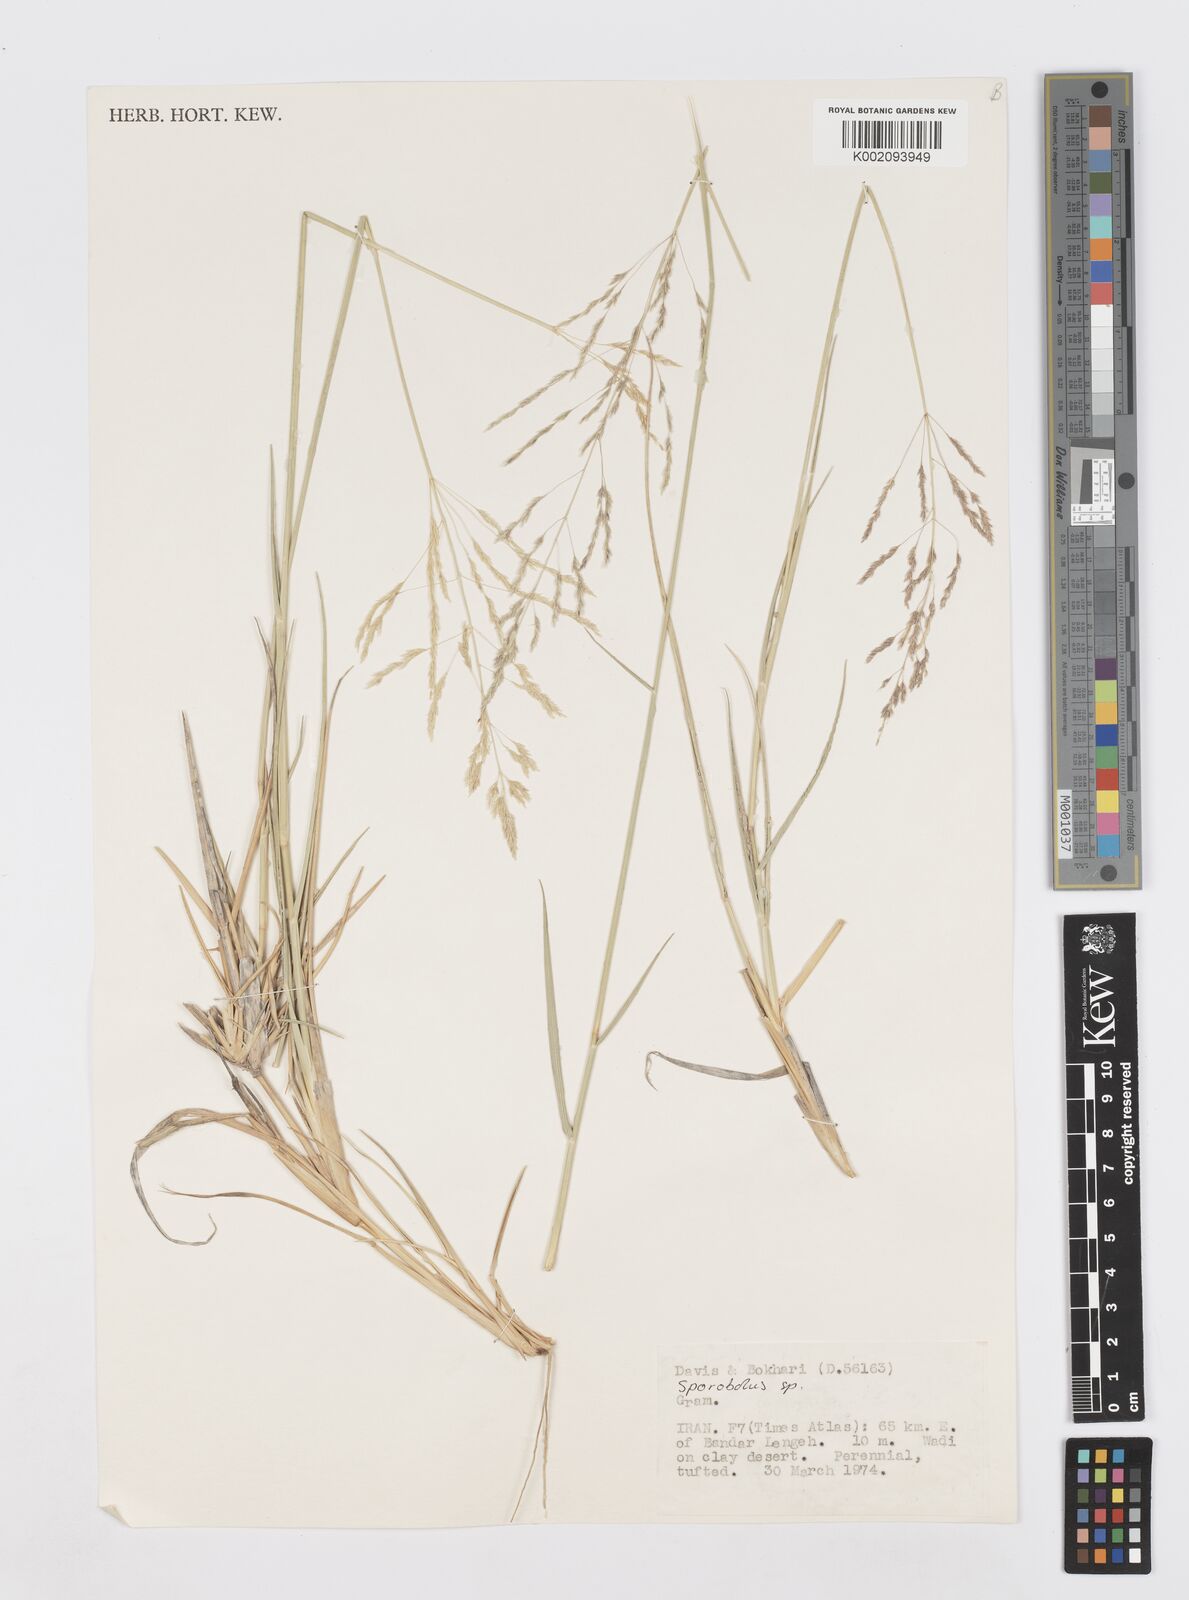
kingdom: Plantae
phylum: Tracheophyta
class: Liliopsida
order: Poales
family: Poaceae
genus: Sporobolus
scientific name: Sporobolus
